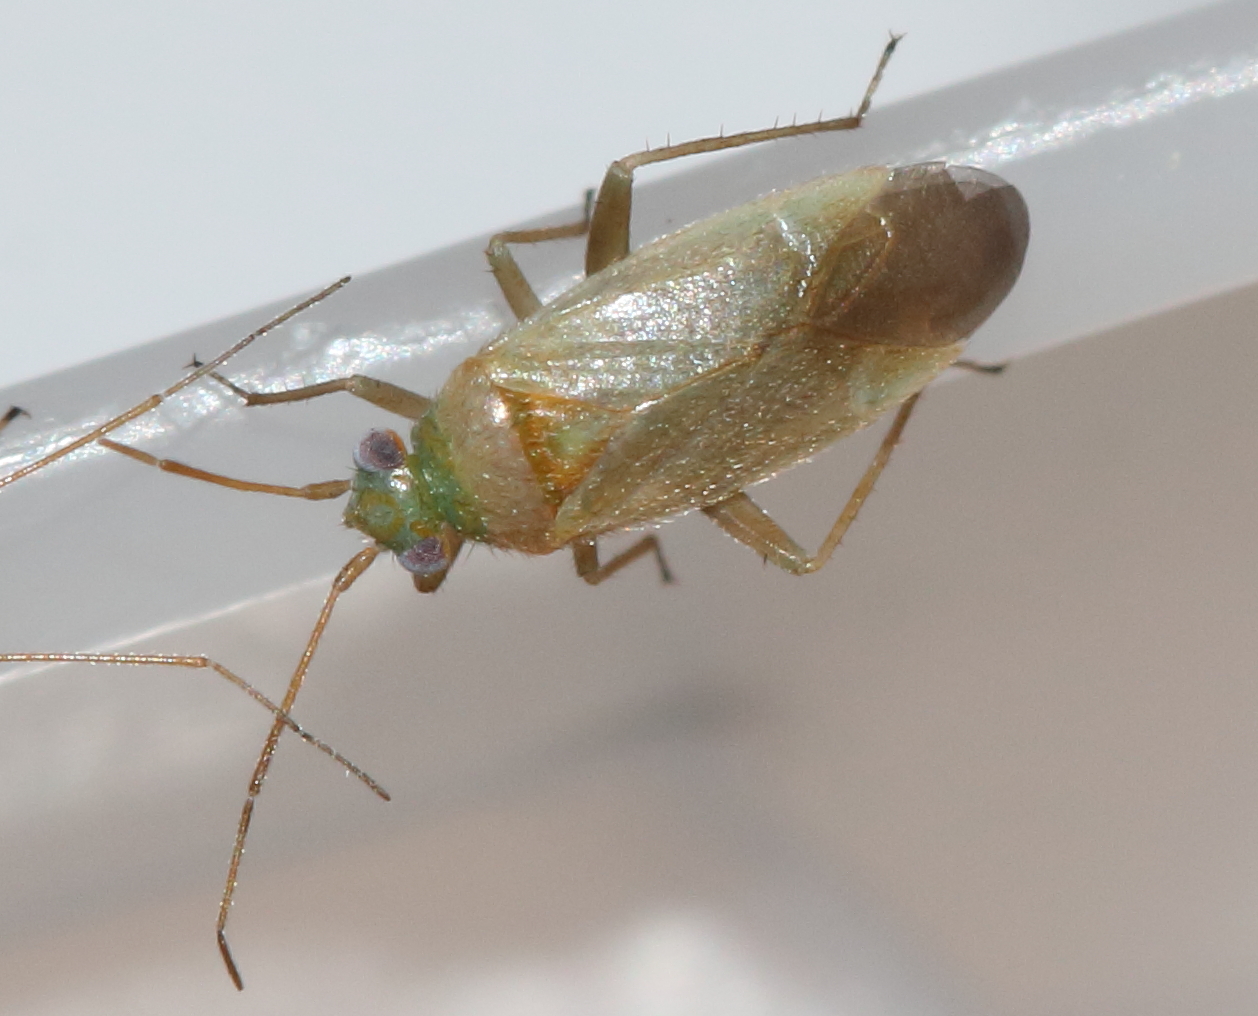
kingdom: Animalia
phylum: Arthropoda
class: Insecta
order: Hemiptera
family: Miridae
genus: Orthotylus
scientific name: Orthotylus fuscescens
